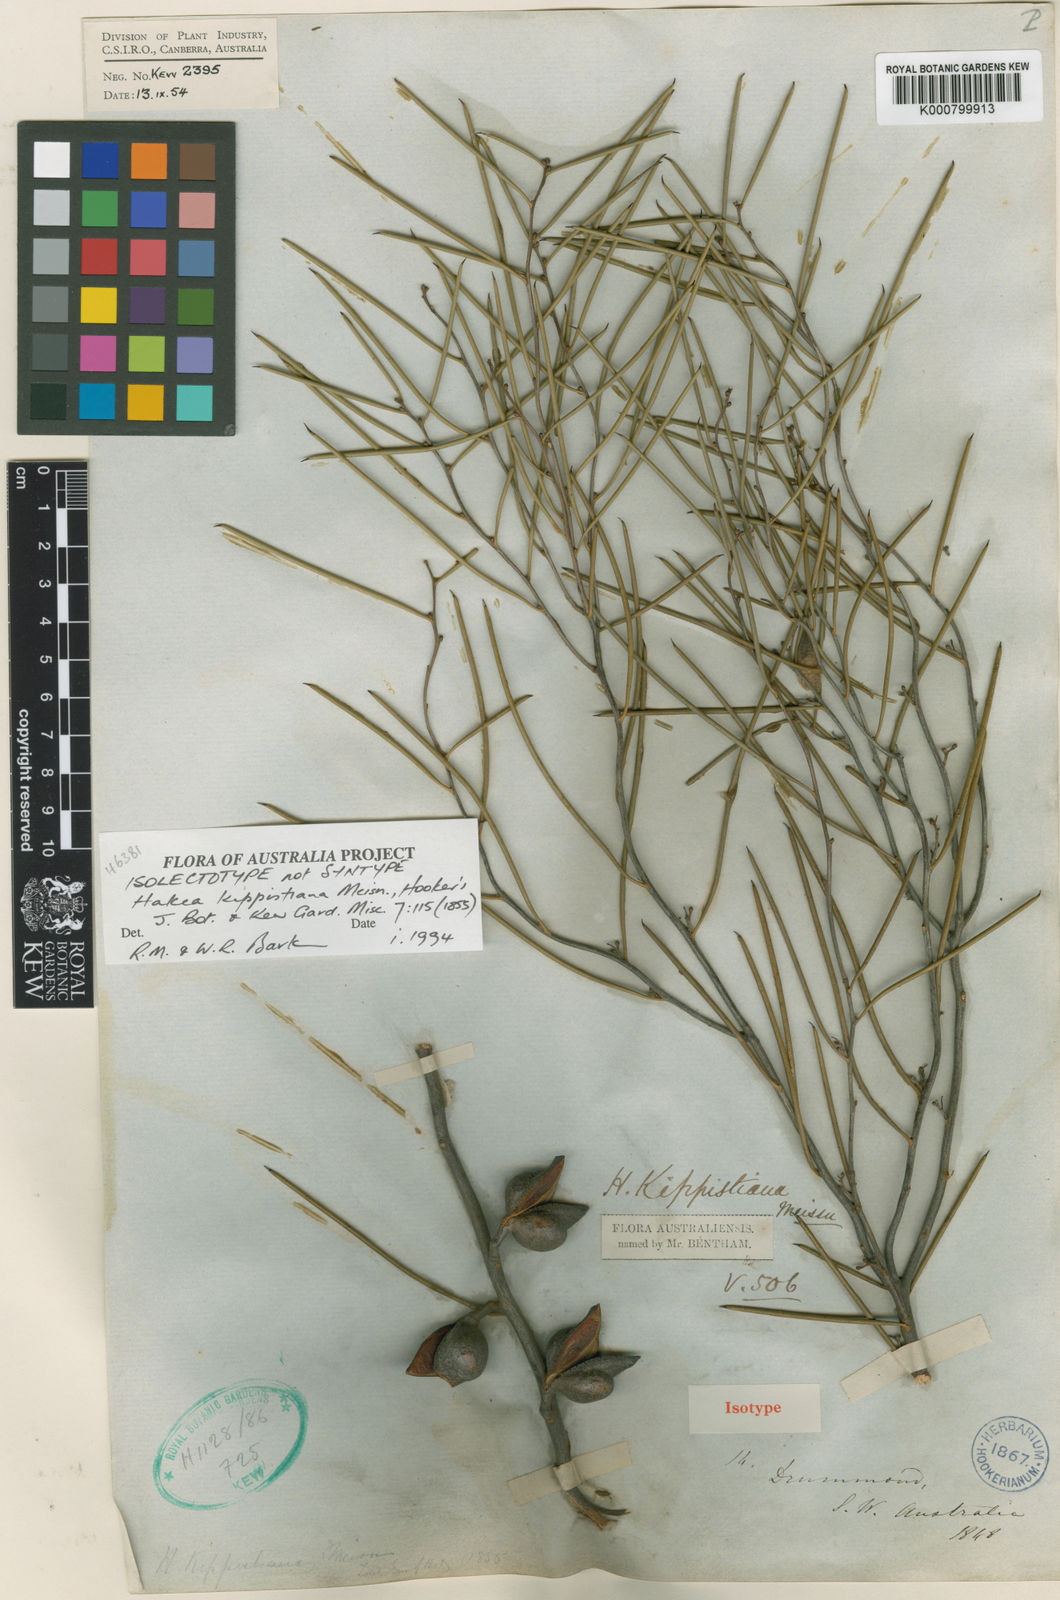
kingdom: Plantae
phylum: Tracheophyta
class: Magnoliopsida
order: Proteales
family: Proteaceae
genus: Hakea
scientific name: Hakea kippistiana
